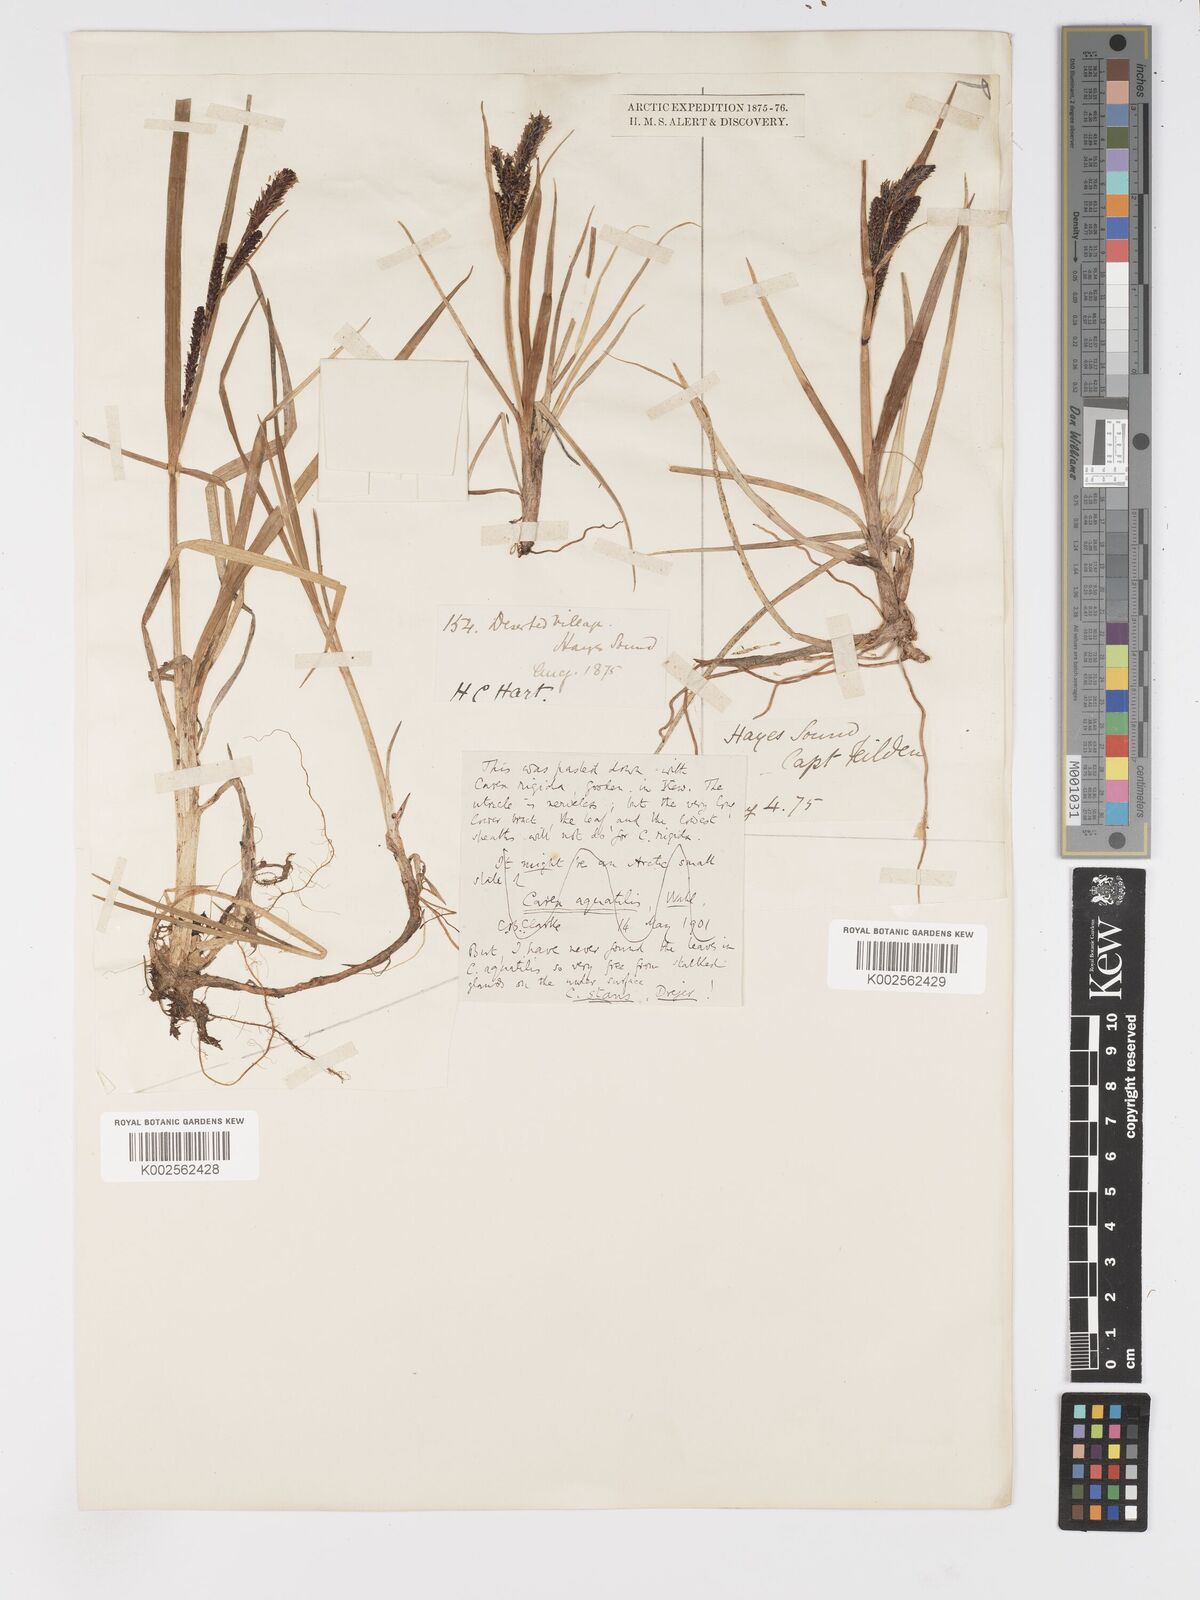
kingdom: Plantae
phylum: Tracheophyta
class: Liliopsida
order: Poales
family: Cyperaceae
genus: Carex
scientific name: Carex
